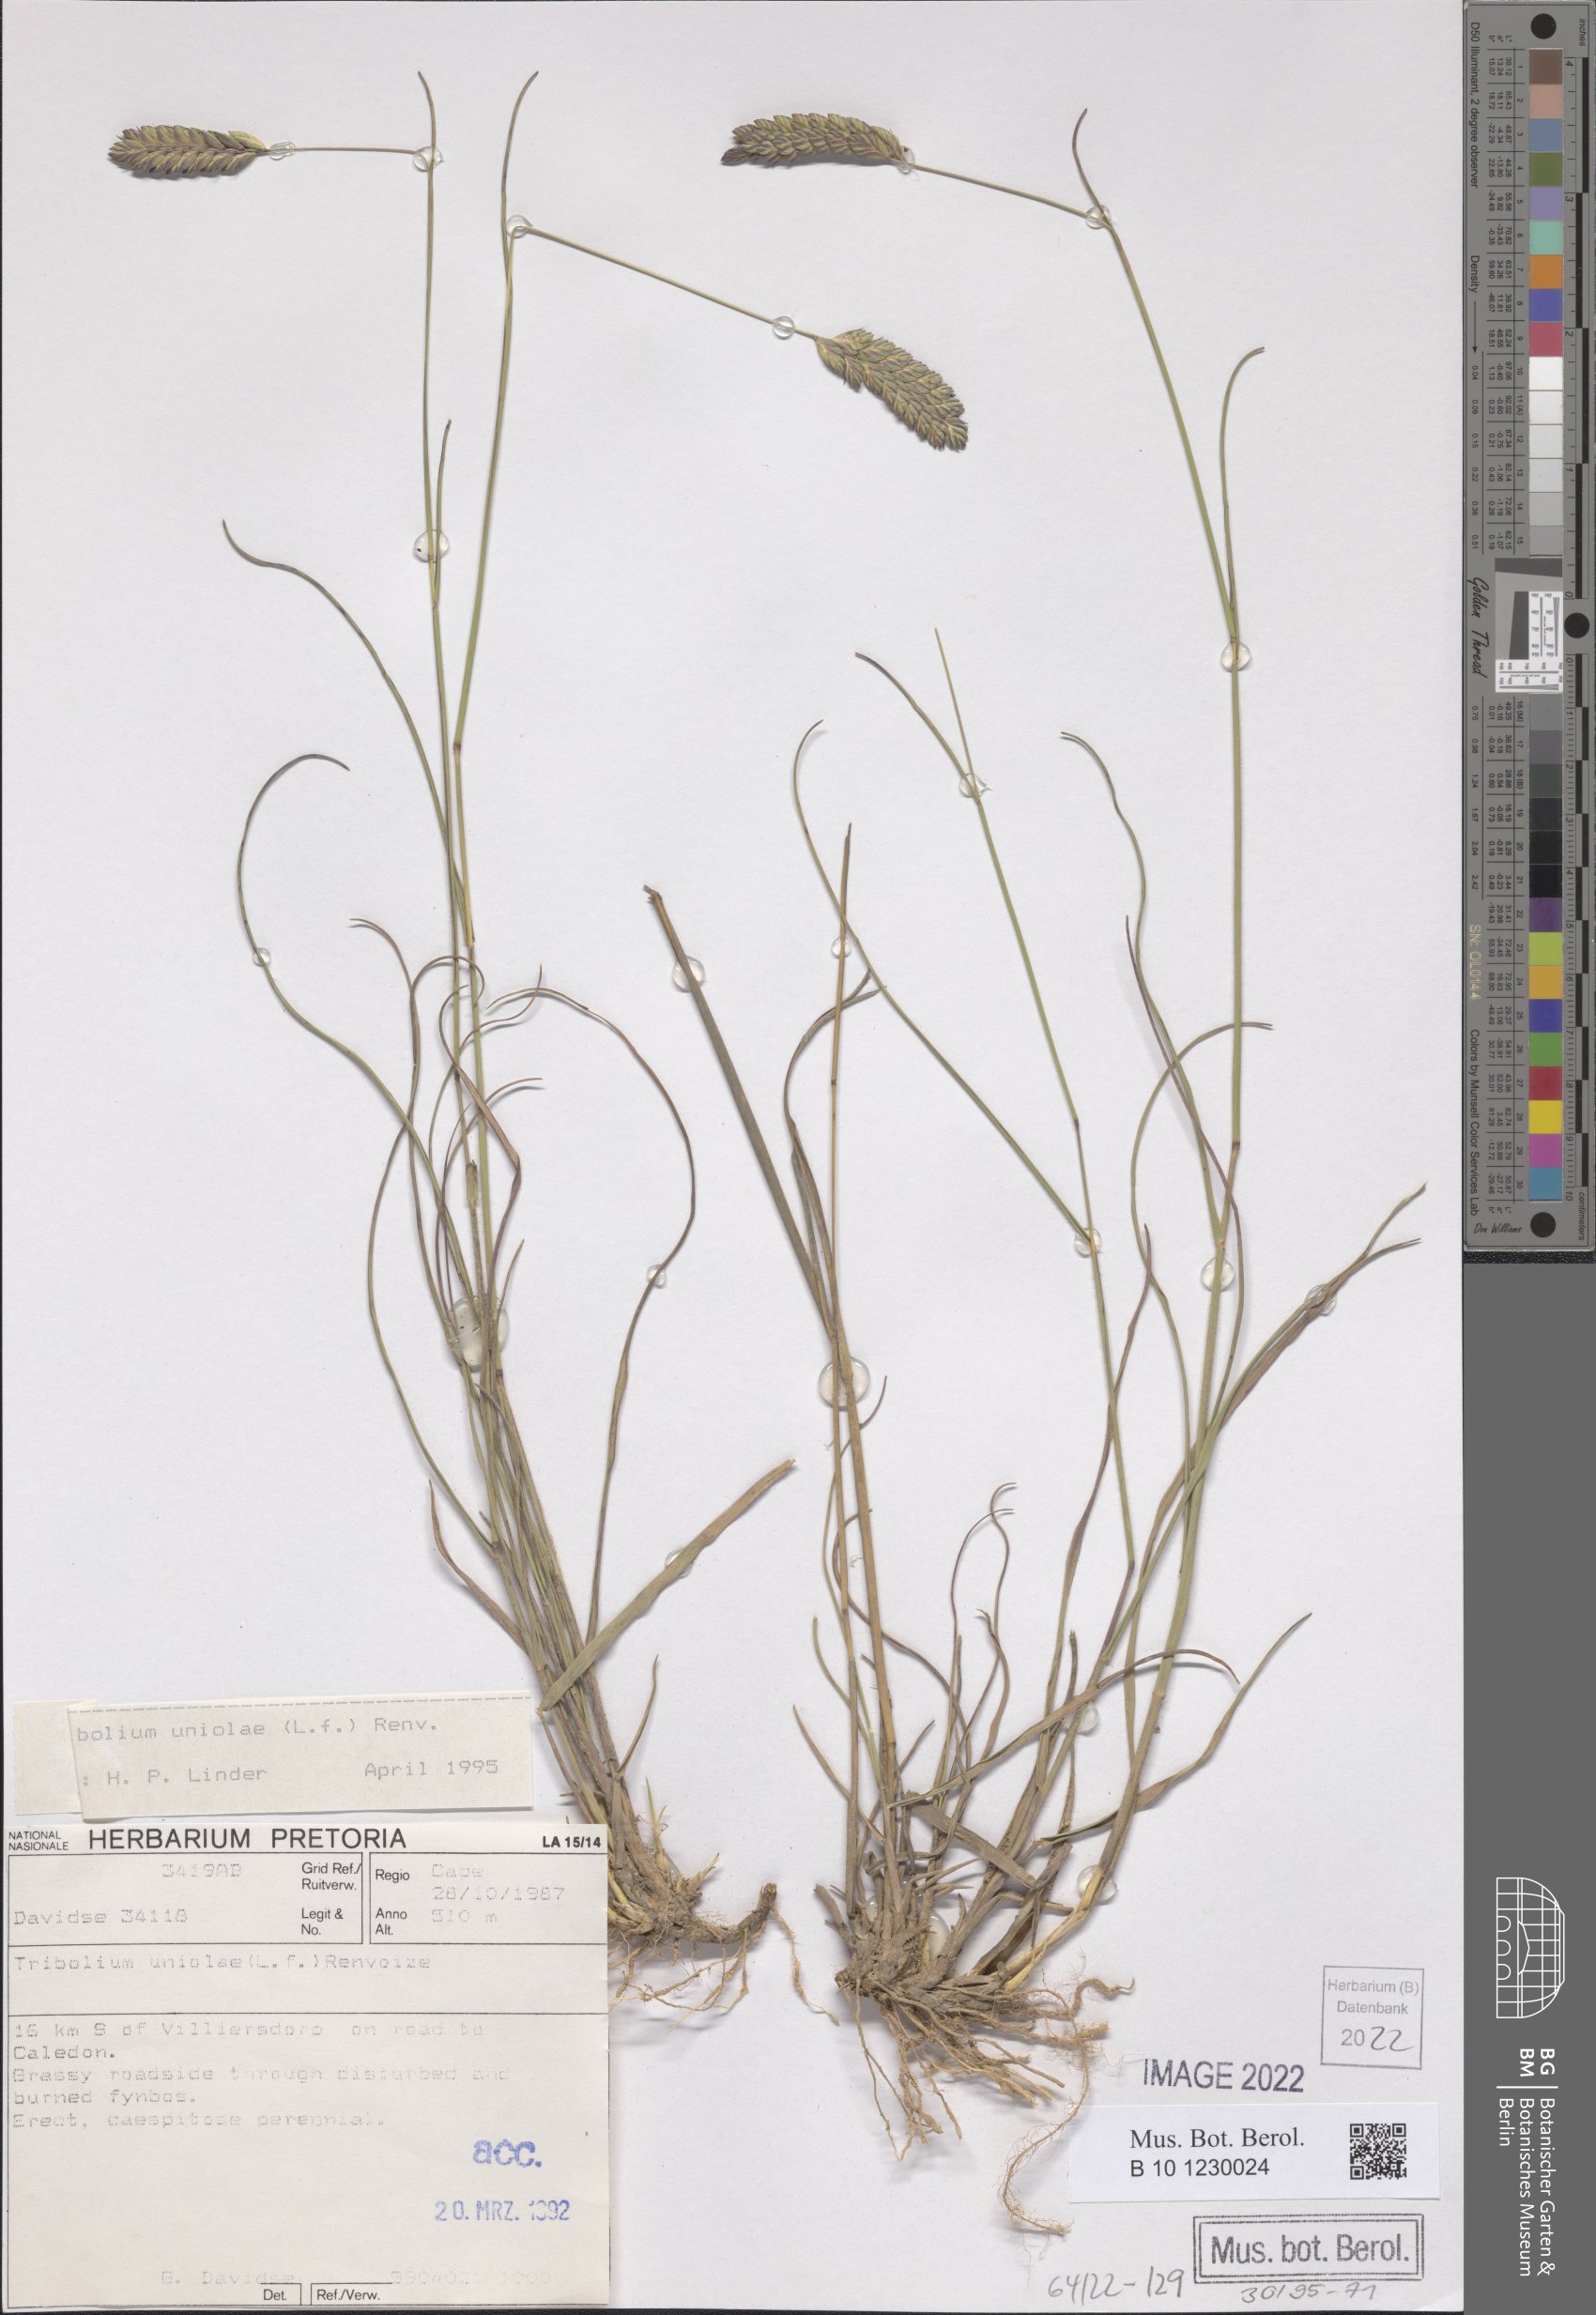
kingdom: Plantae
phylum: Tracheophyta
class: Liliopsida
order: Poales
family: Poaceae
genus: Tribolium
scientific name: Tribolium uniolae
